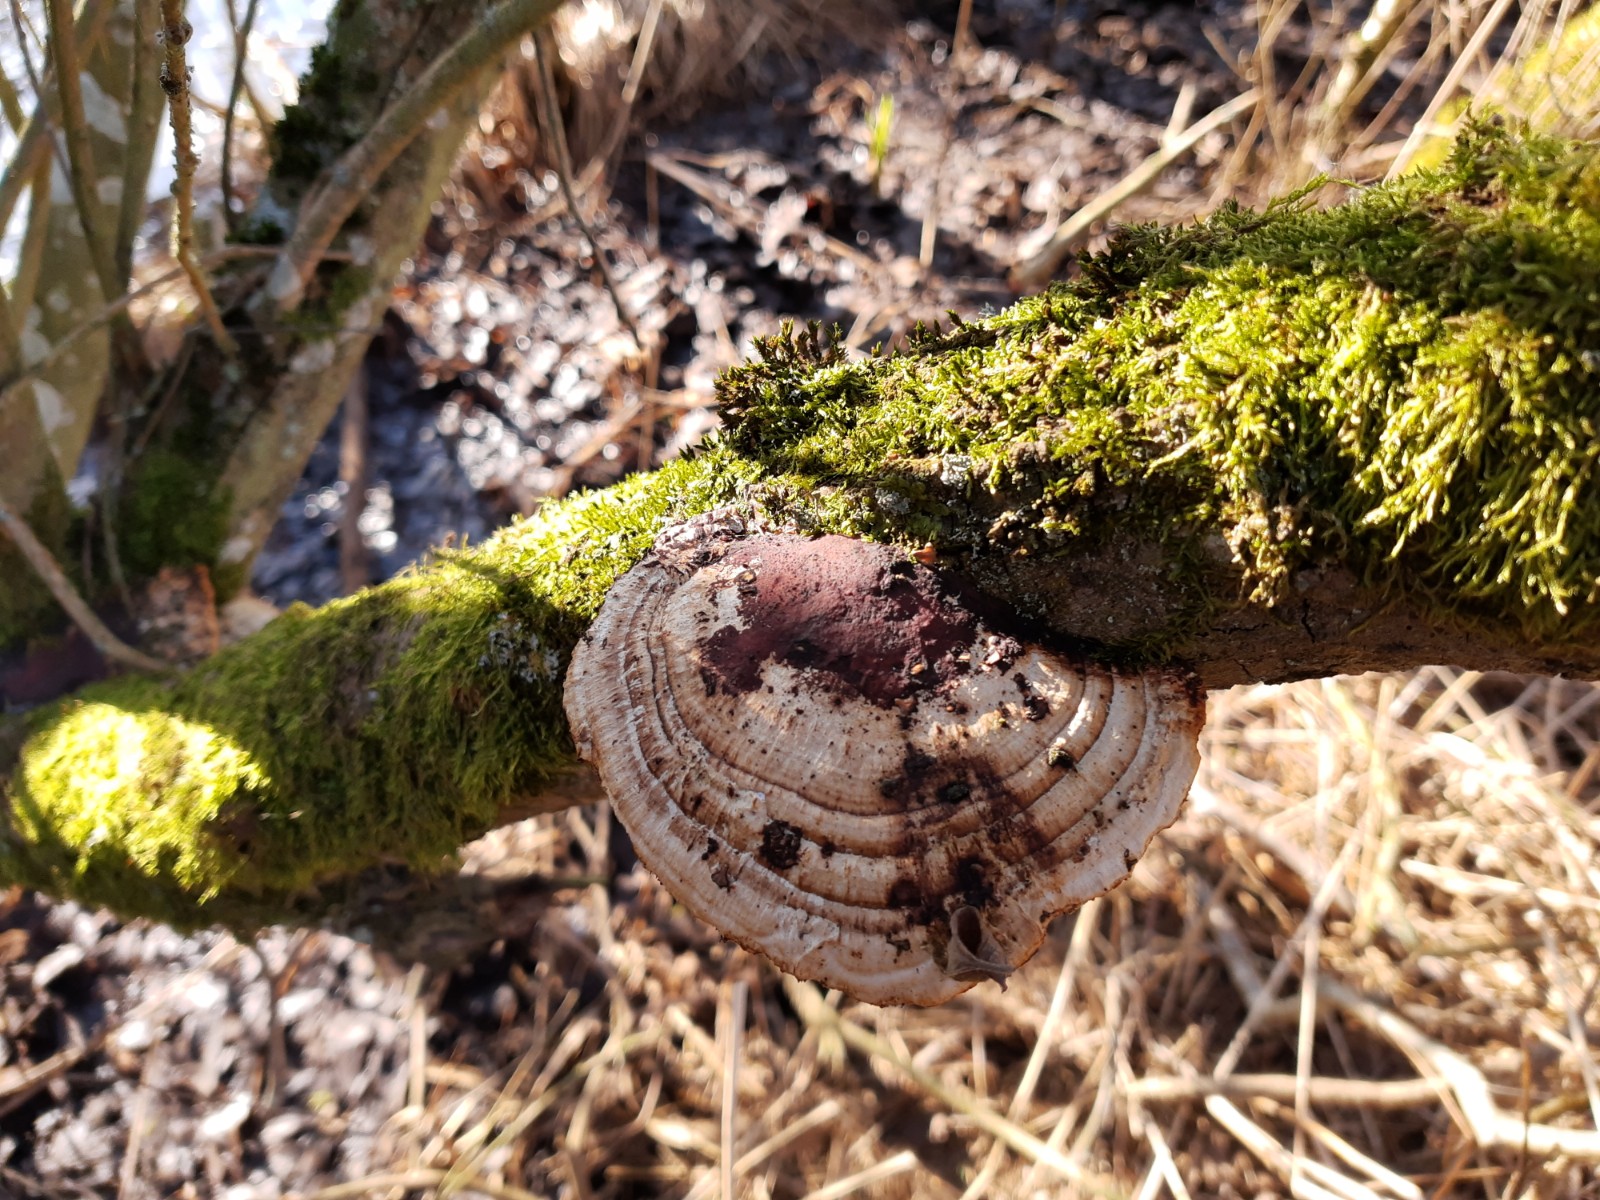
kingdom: Fungi
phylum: Basidiomycota
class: Agaricomycetes
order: Polyporales
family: Polyporaceae
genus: Daedaleopsis
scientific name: Daedaleopsis confragosa
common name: rødmende læderporesvamp
